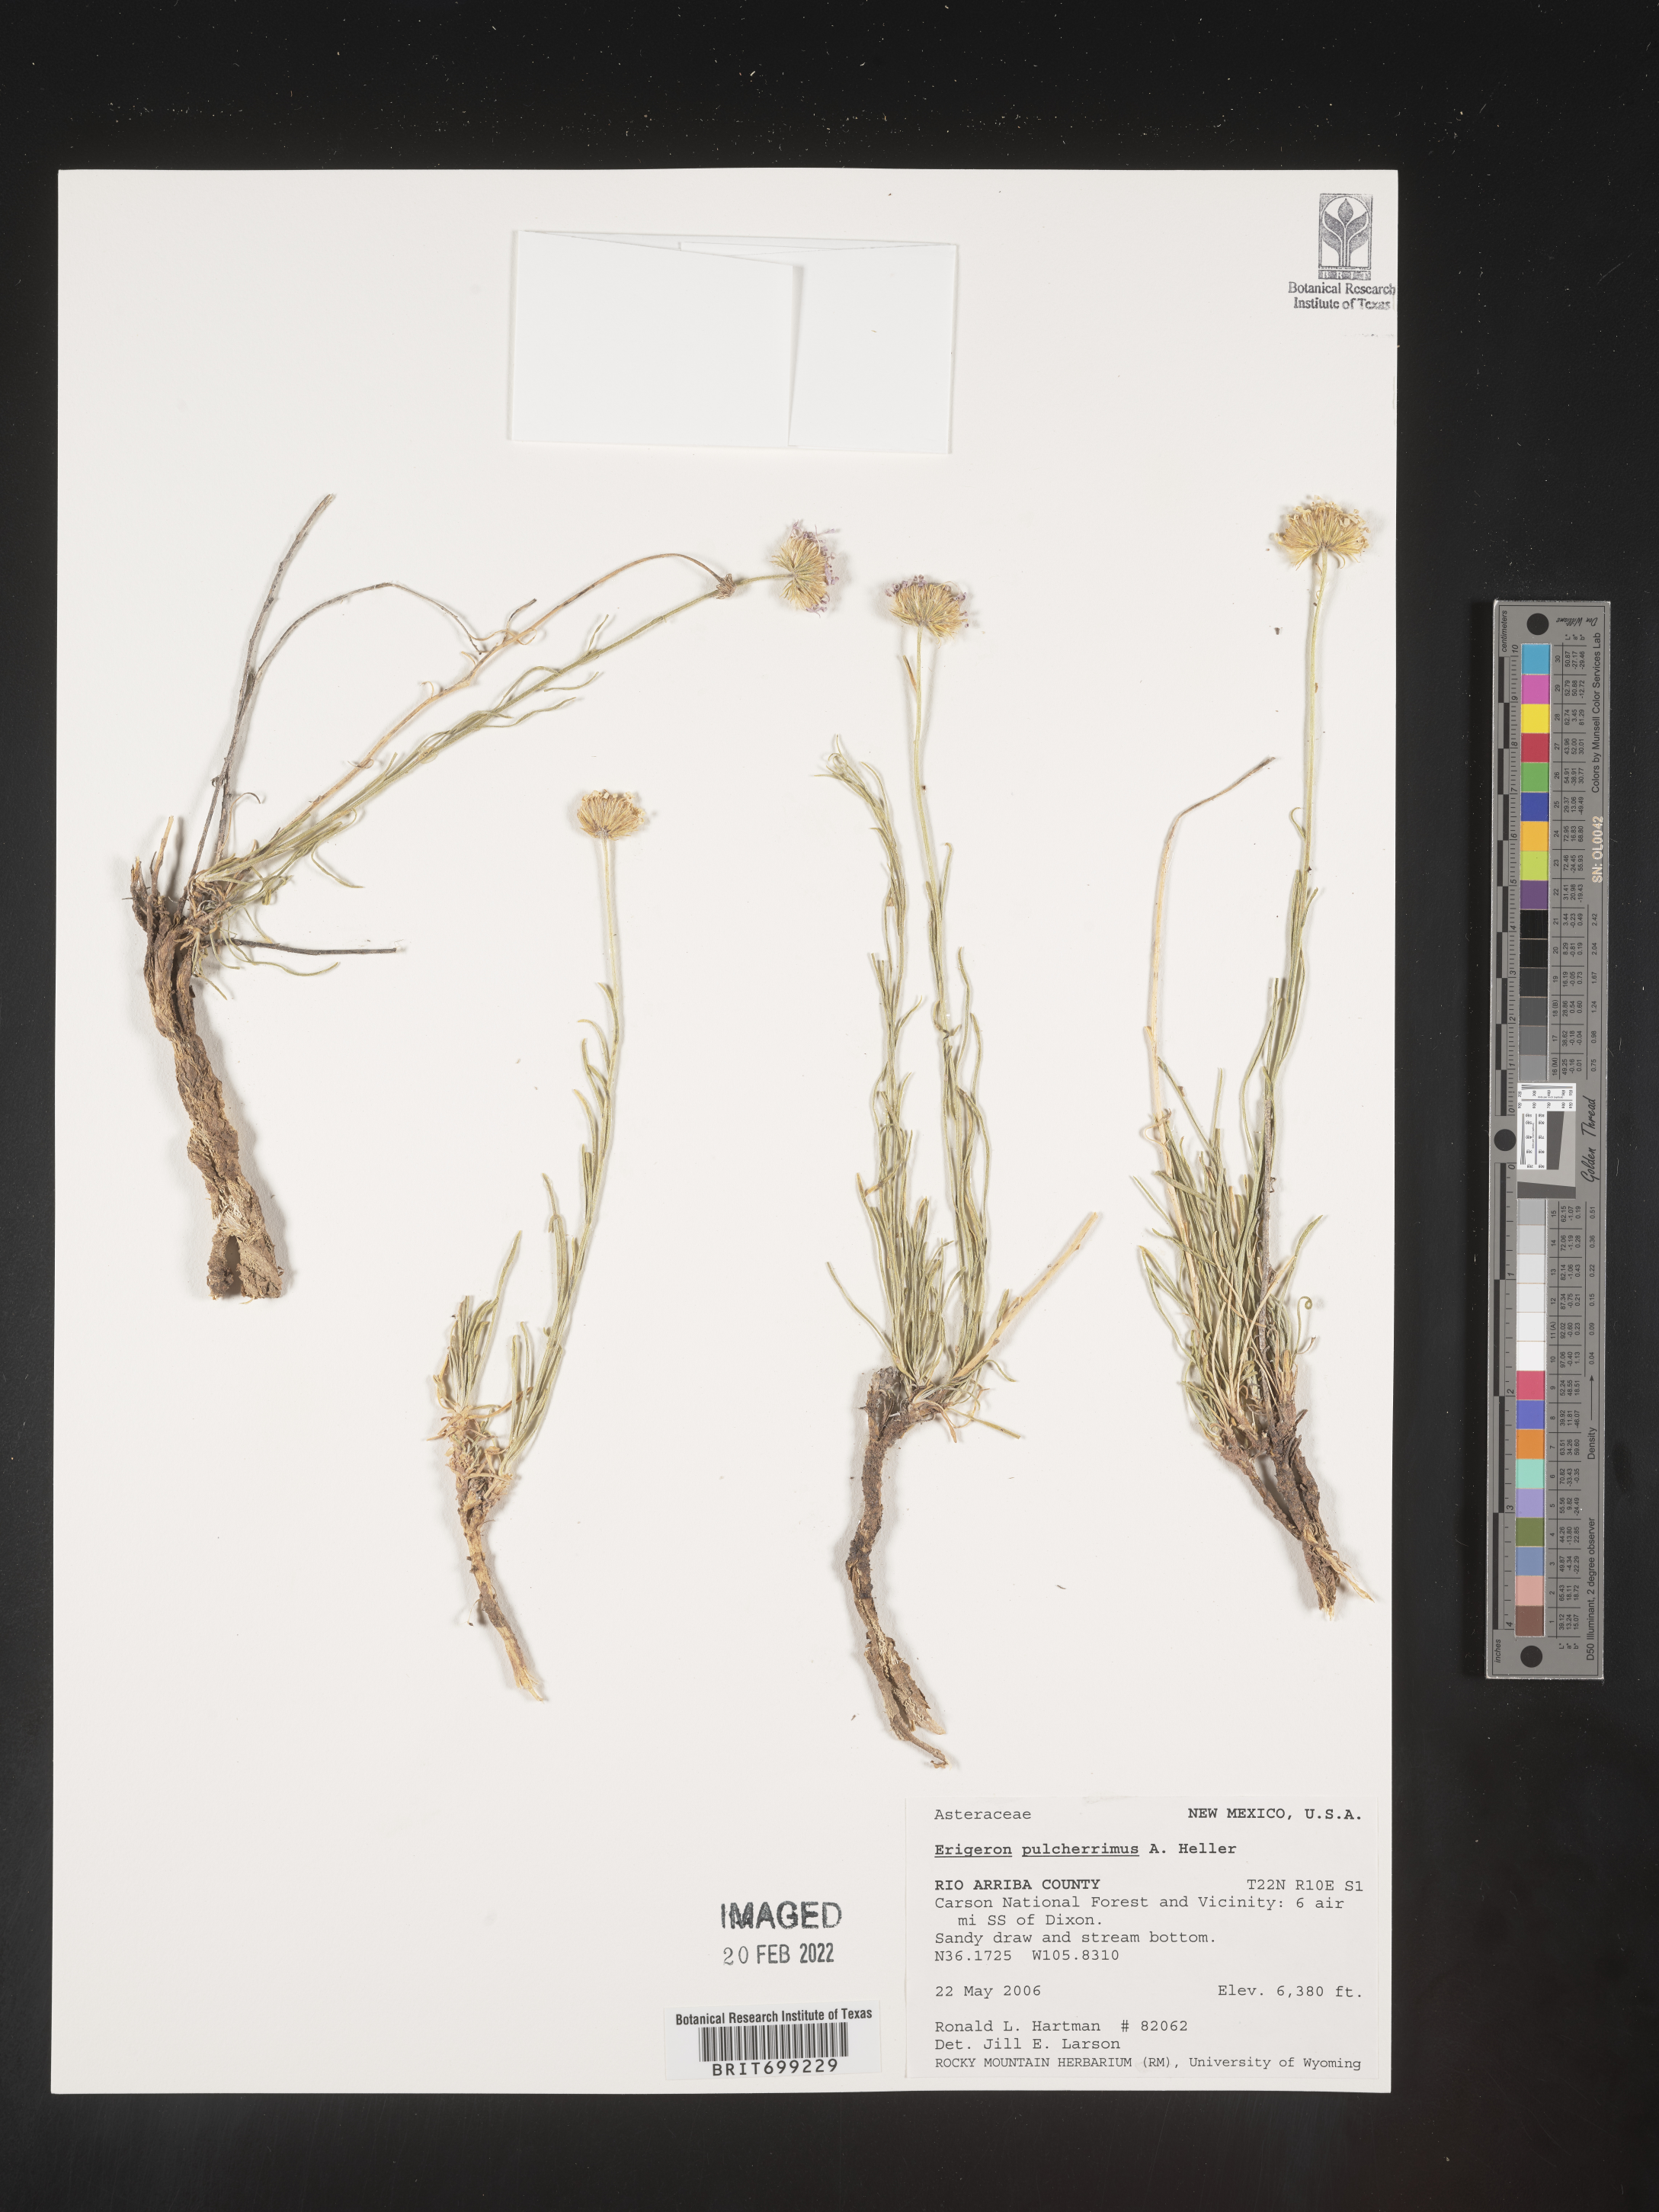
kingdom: Plantae
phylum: Tracheophyta
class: Magnoliopsida
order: Asterales
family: Asteraceae
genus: Erigeron
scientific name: Erigeron pulcherrimus
